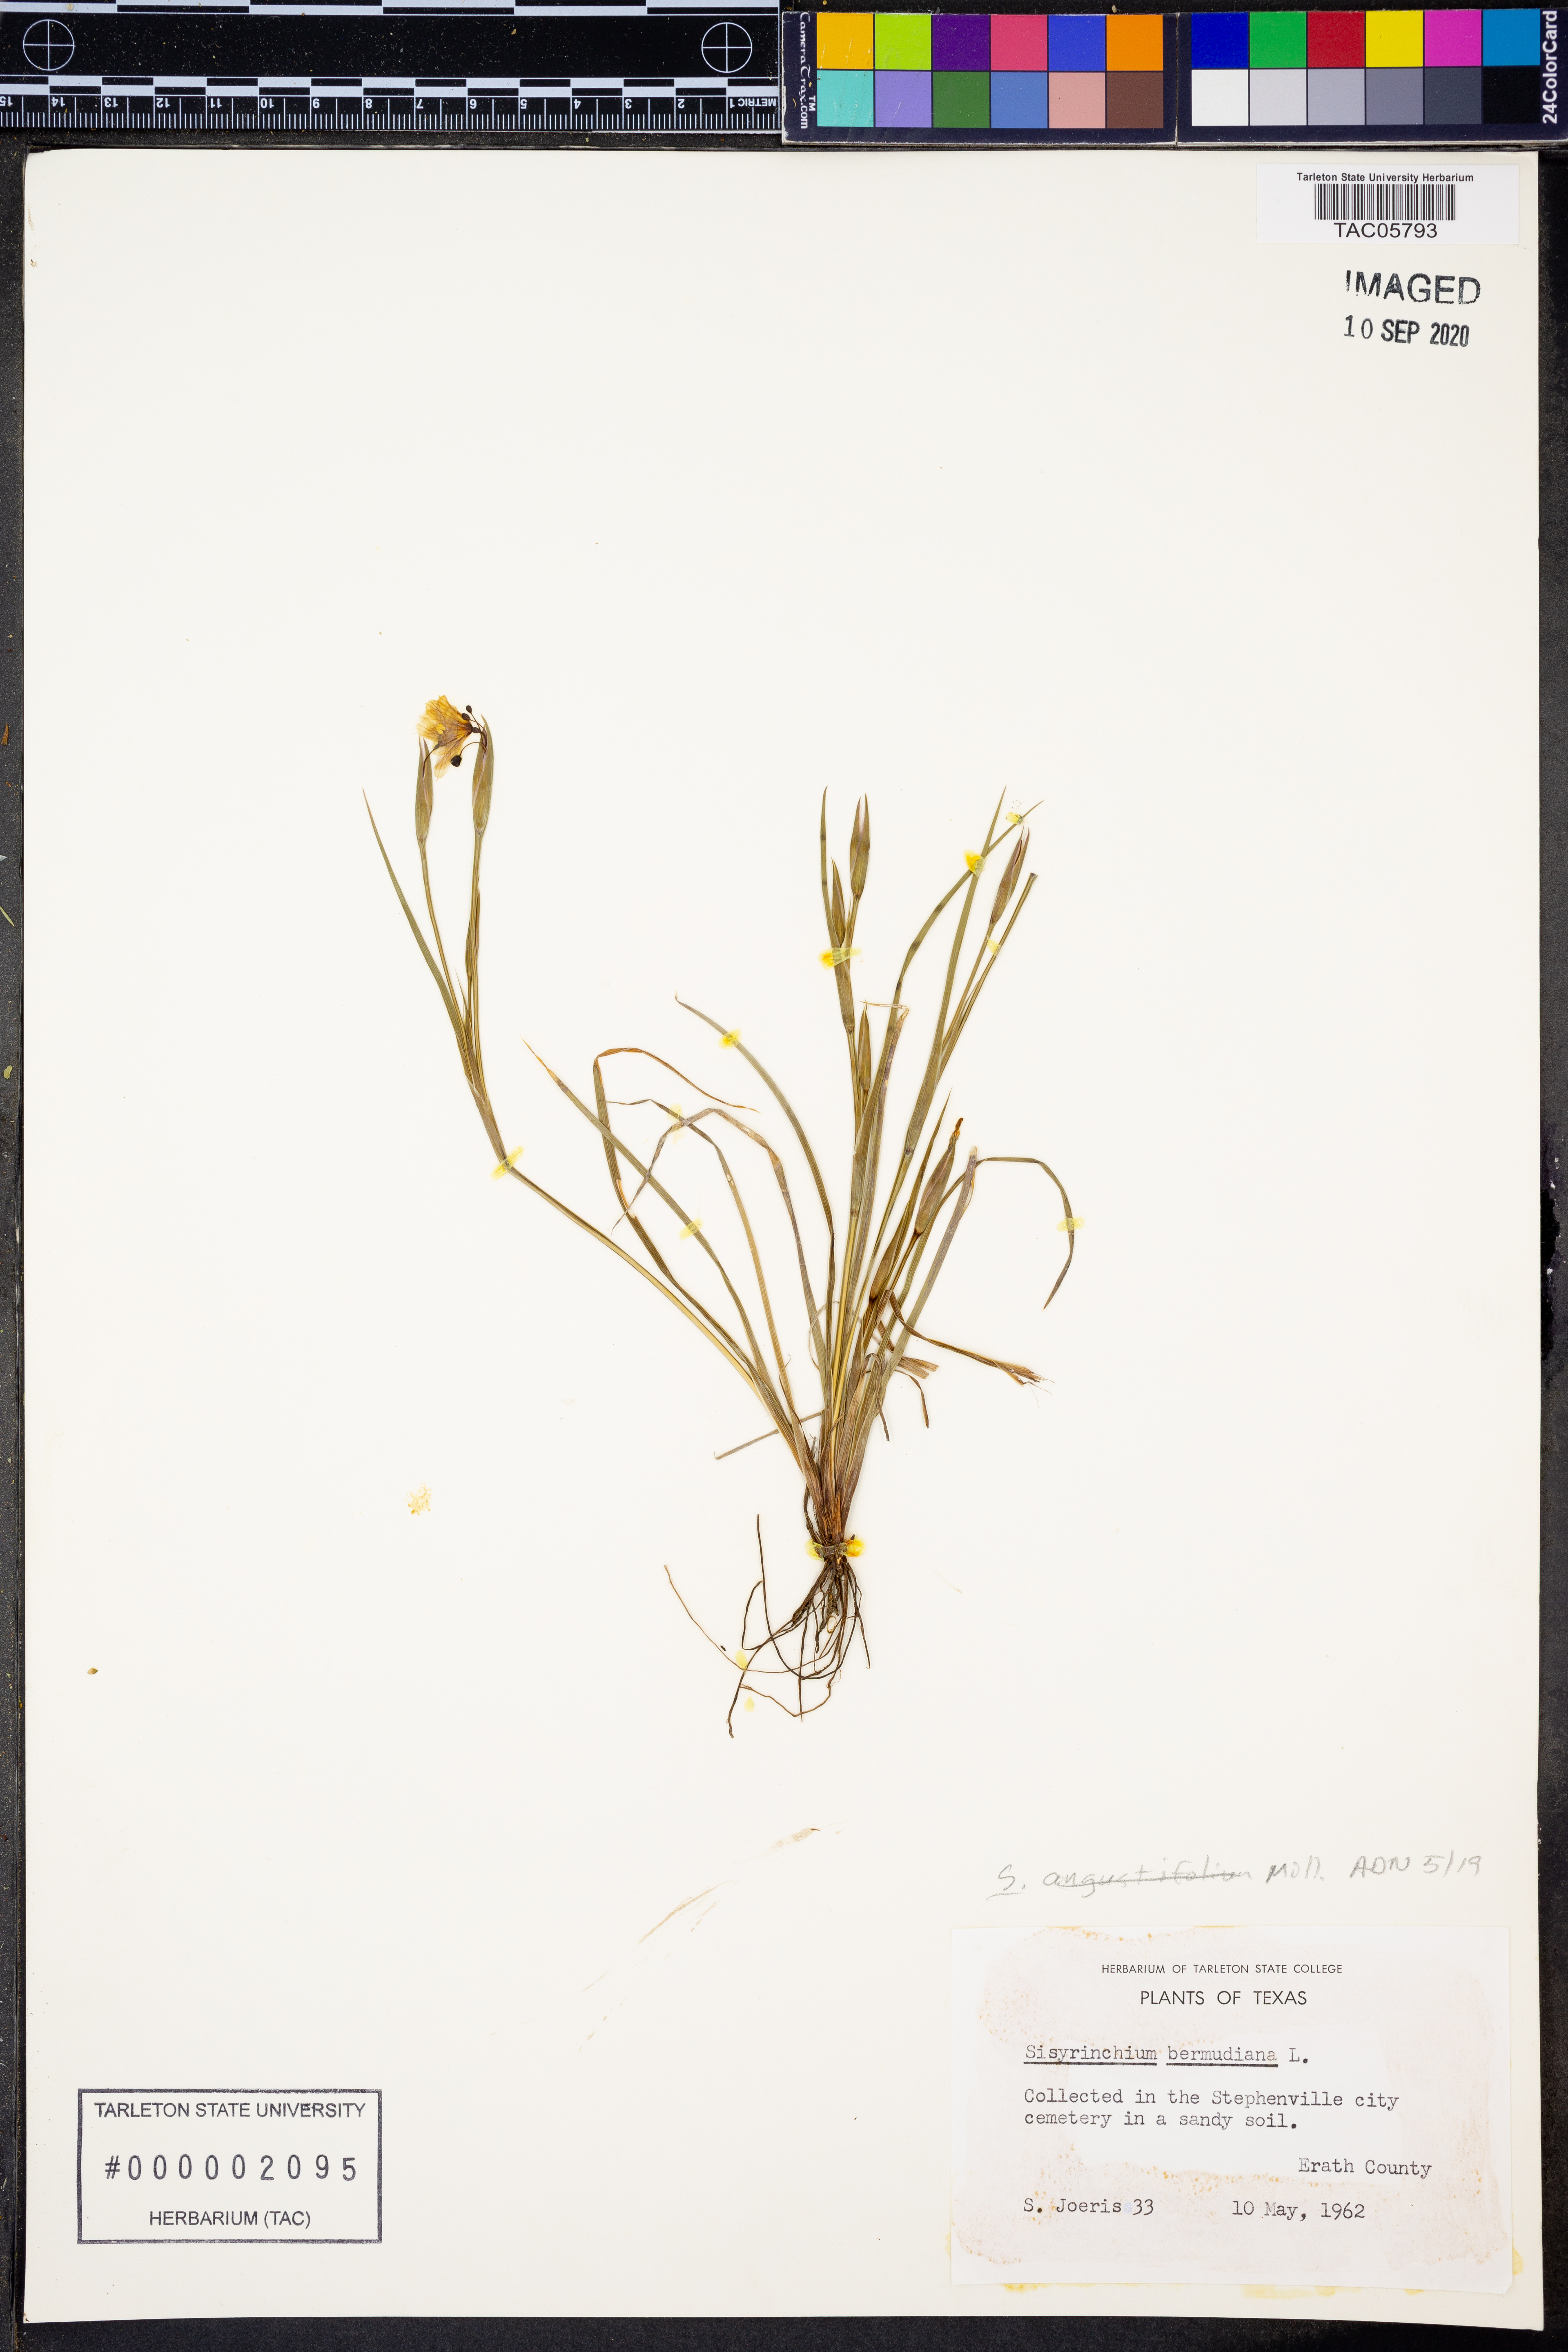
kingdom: Plantae
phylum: Tracheophyta
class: Liliopsida
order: Asparagales
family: Iridaceae
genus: Sisyrinchium
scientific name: Sisyrinchium angustifolium
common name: Narrow-leaf blue-eyed-grass
